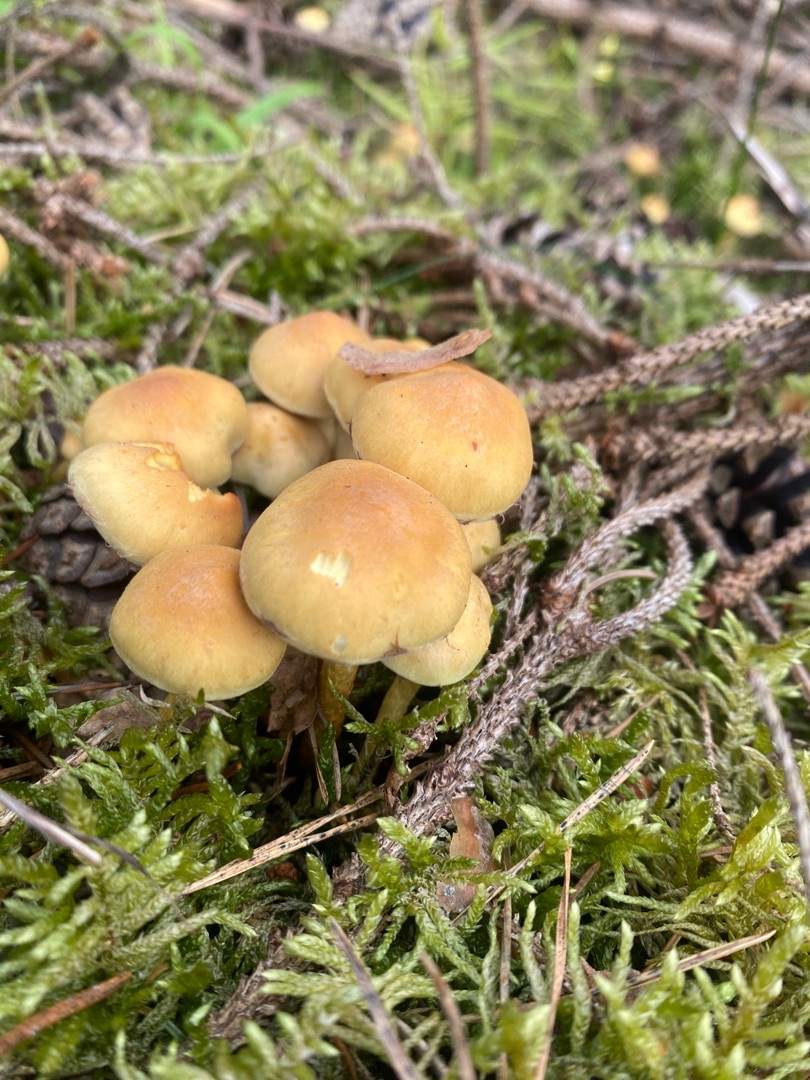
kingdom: Fungi
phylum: Basidiomycota
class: Agaricomycetes
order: Agaricales
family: Strophariaceae
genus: Hypholoma
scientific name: Hypholoma fasciculare
